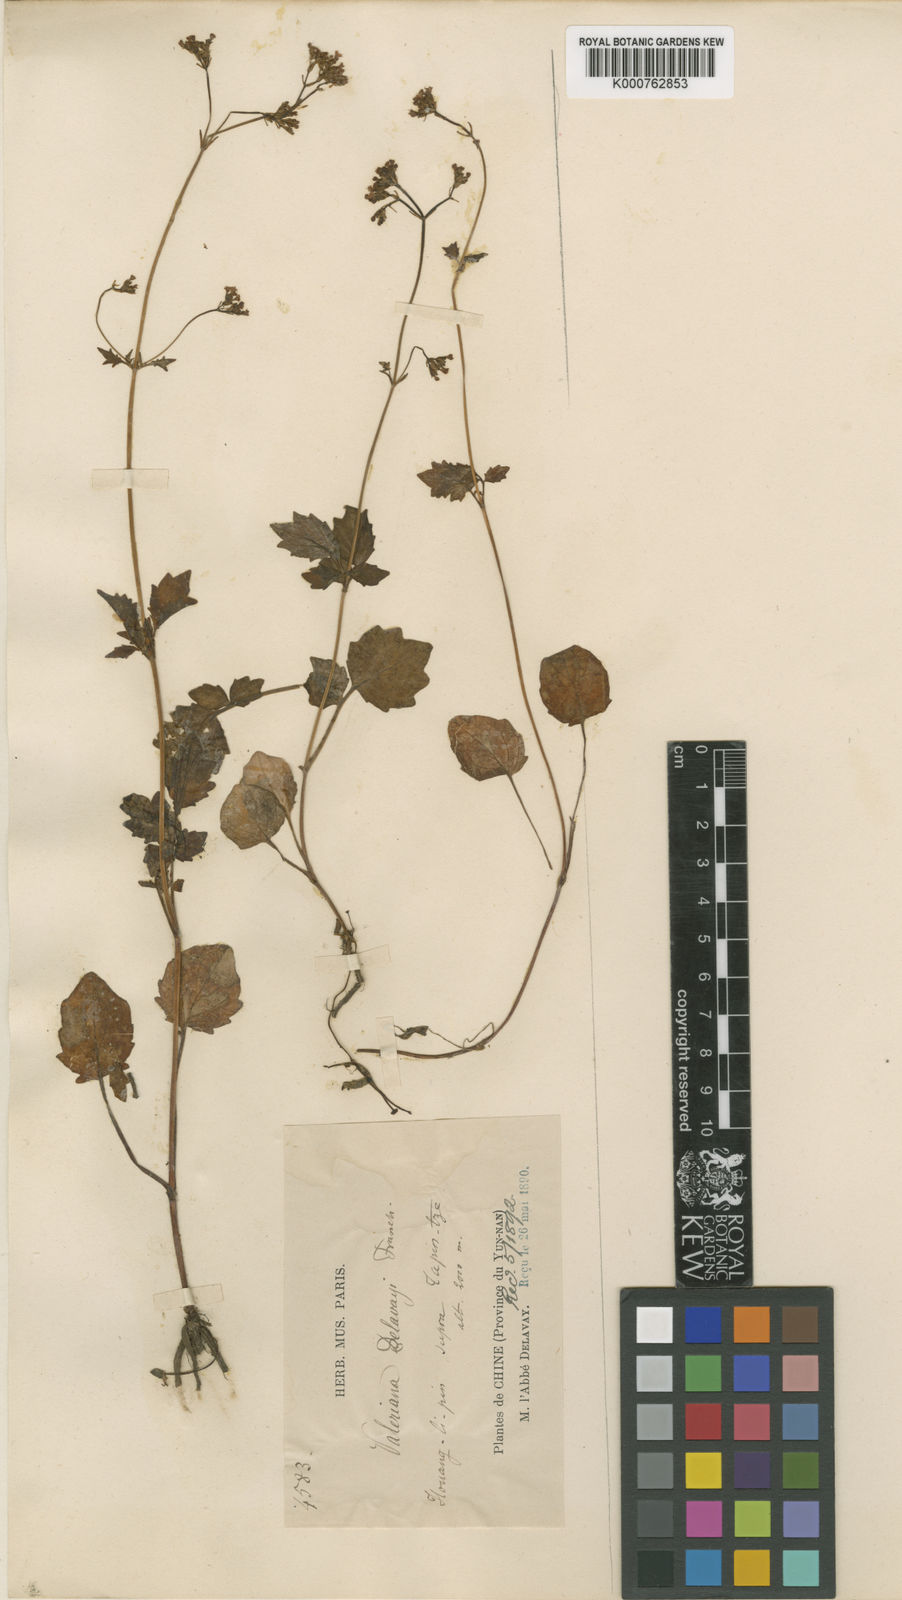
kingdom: Plantae
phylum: Tracheophyta
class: Magnoliopsida
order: Dipsacales
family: Caprifoliaceae
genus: Valeriana
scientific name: Valeriana
